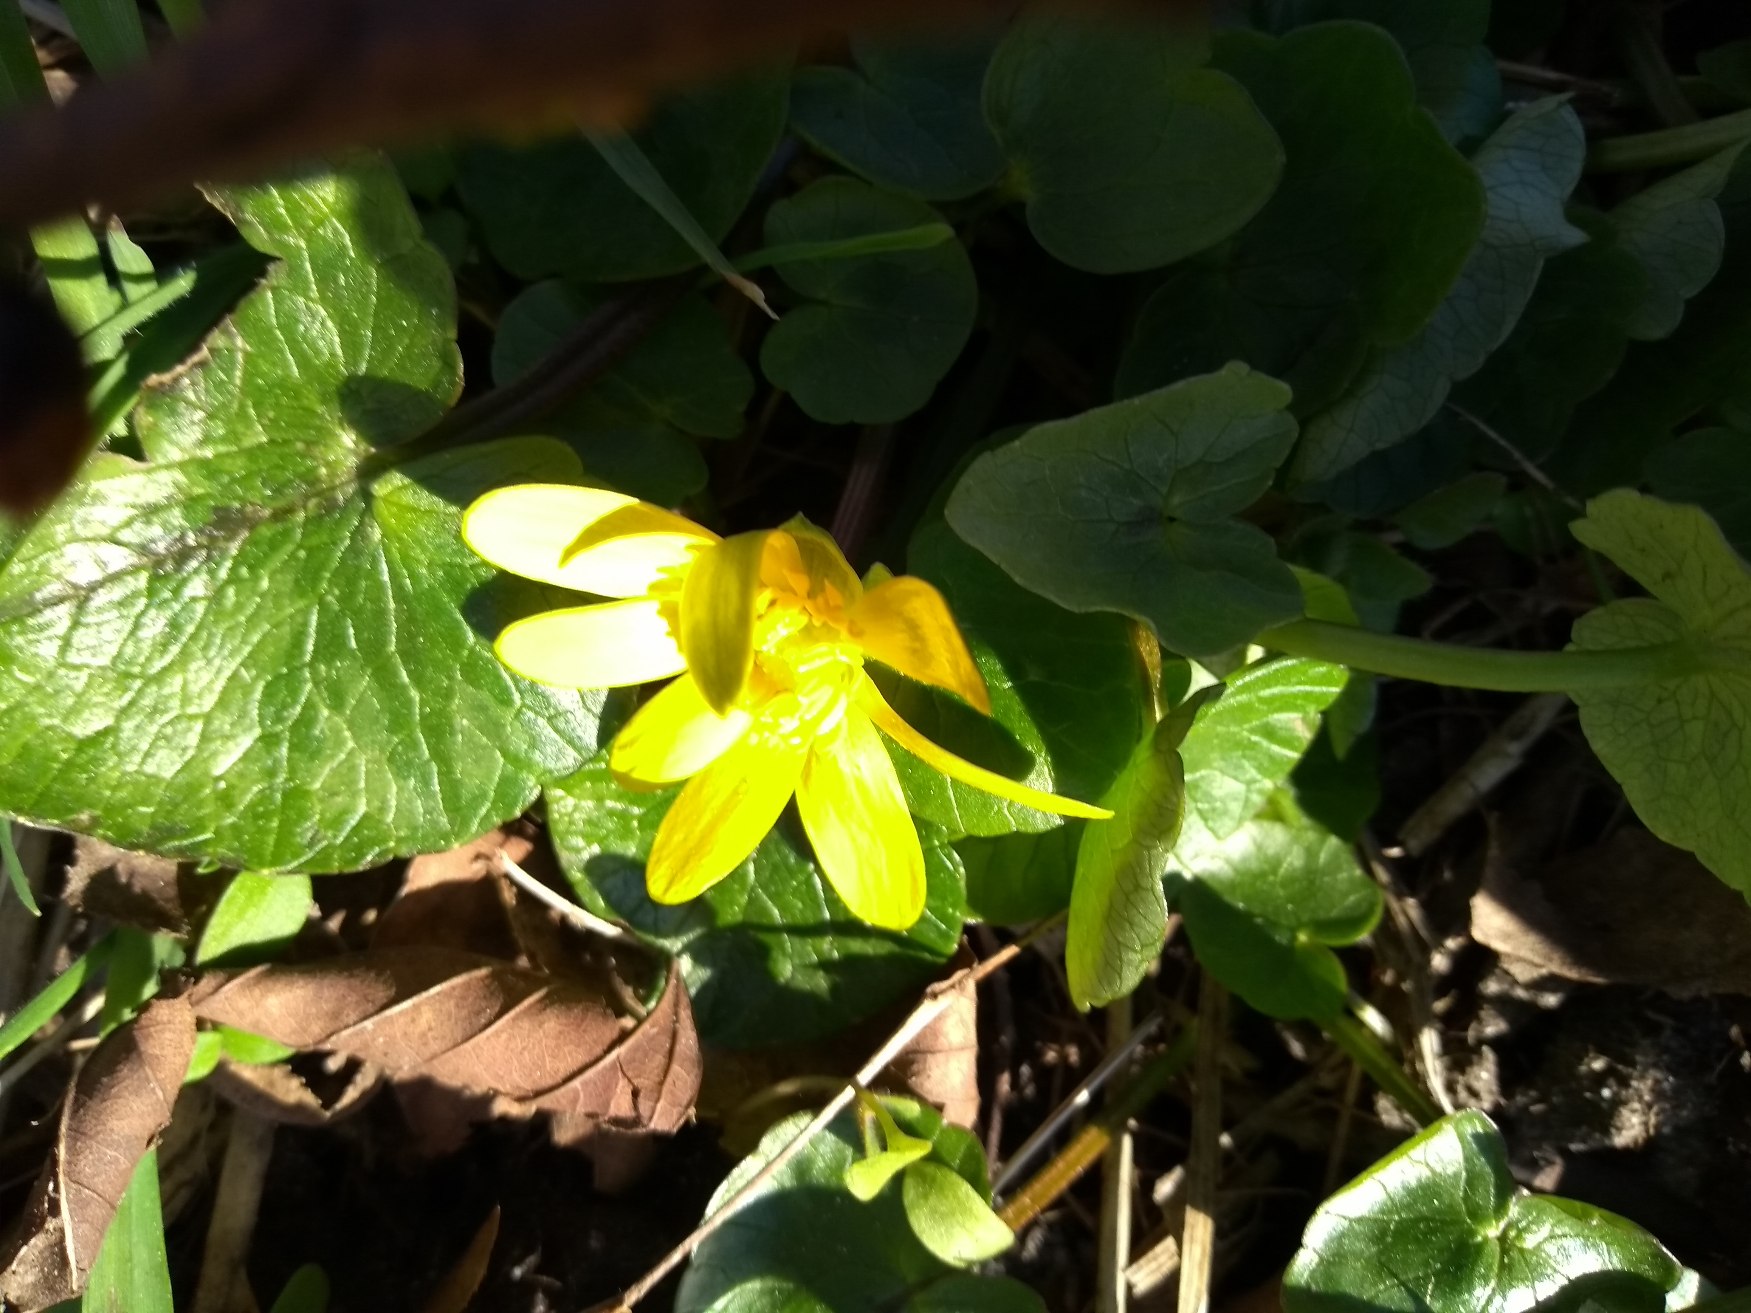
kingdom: Plantae
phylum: Tracheophyta
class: Magnoliopsida
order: Ranunculales
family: Ranunculaceae
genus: Ficaria
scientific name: Ficaria verna
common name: Vorterod
